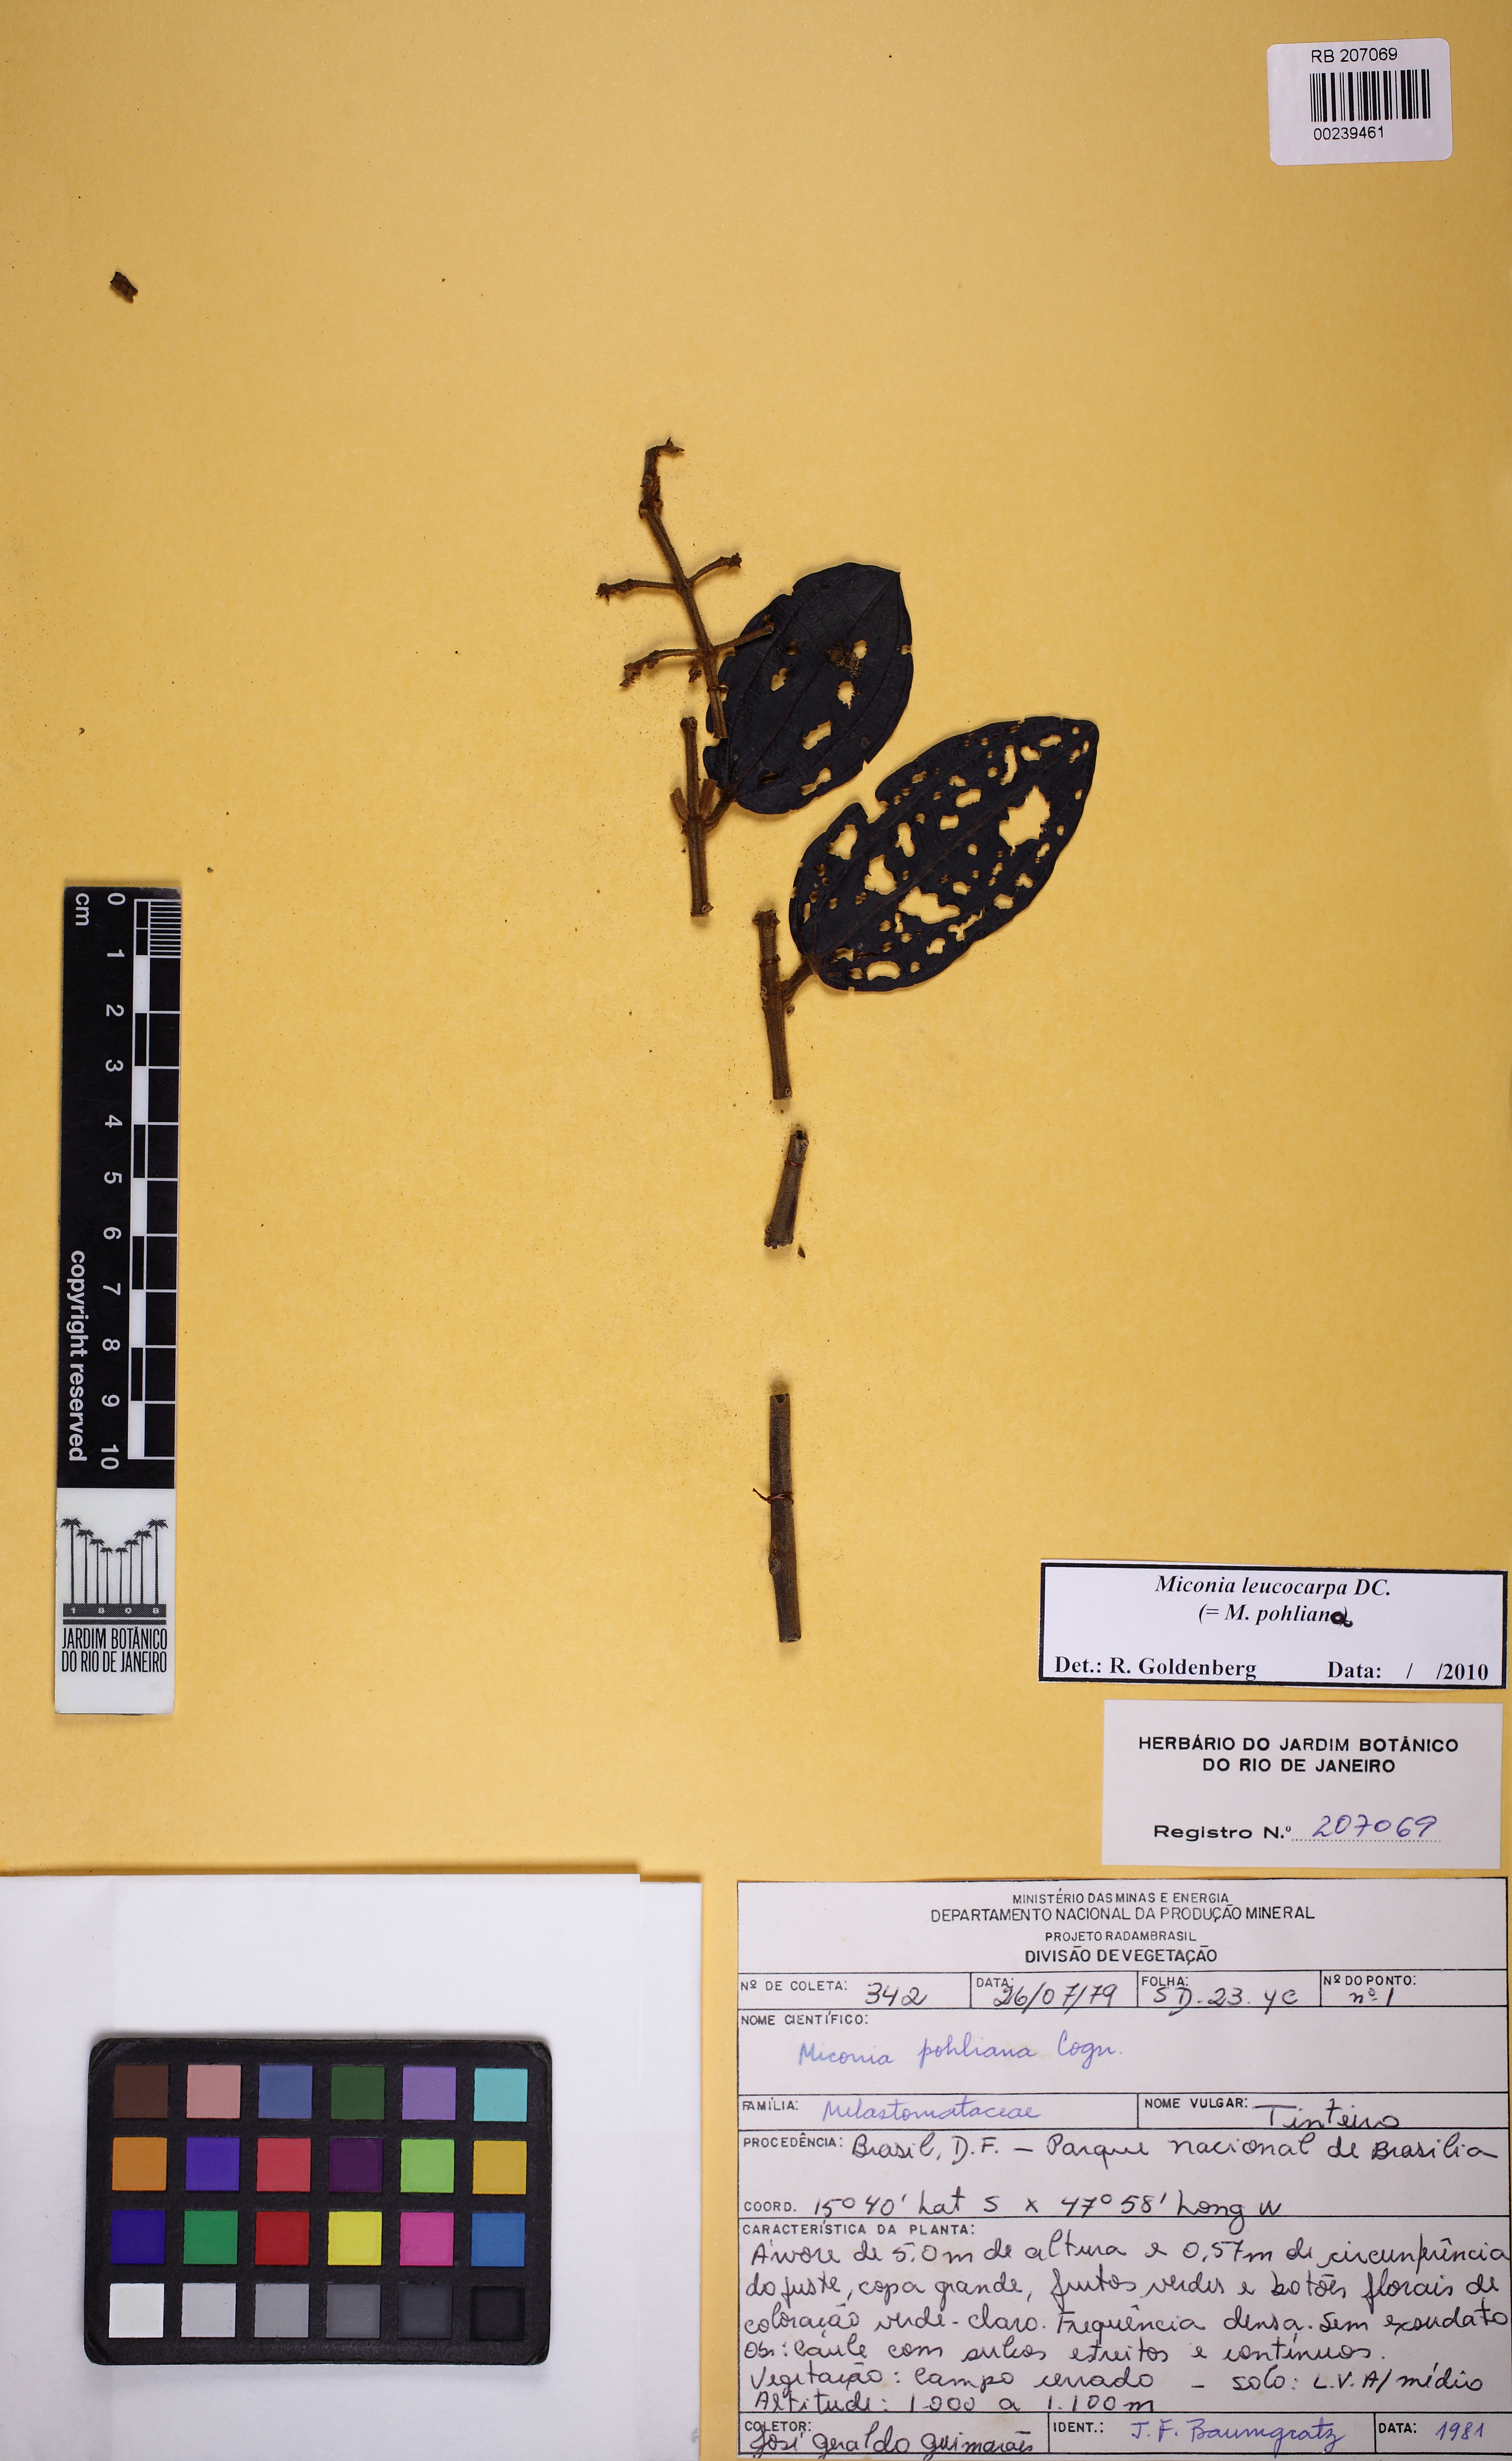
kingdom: Plantae
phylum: Tracheophyta
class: Magnoliopsida
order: Myrtales
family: Melastomataceae
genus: Miconia
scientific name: Miconia leucocarpa
